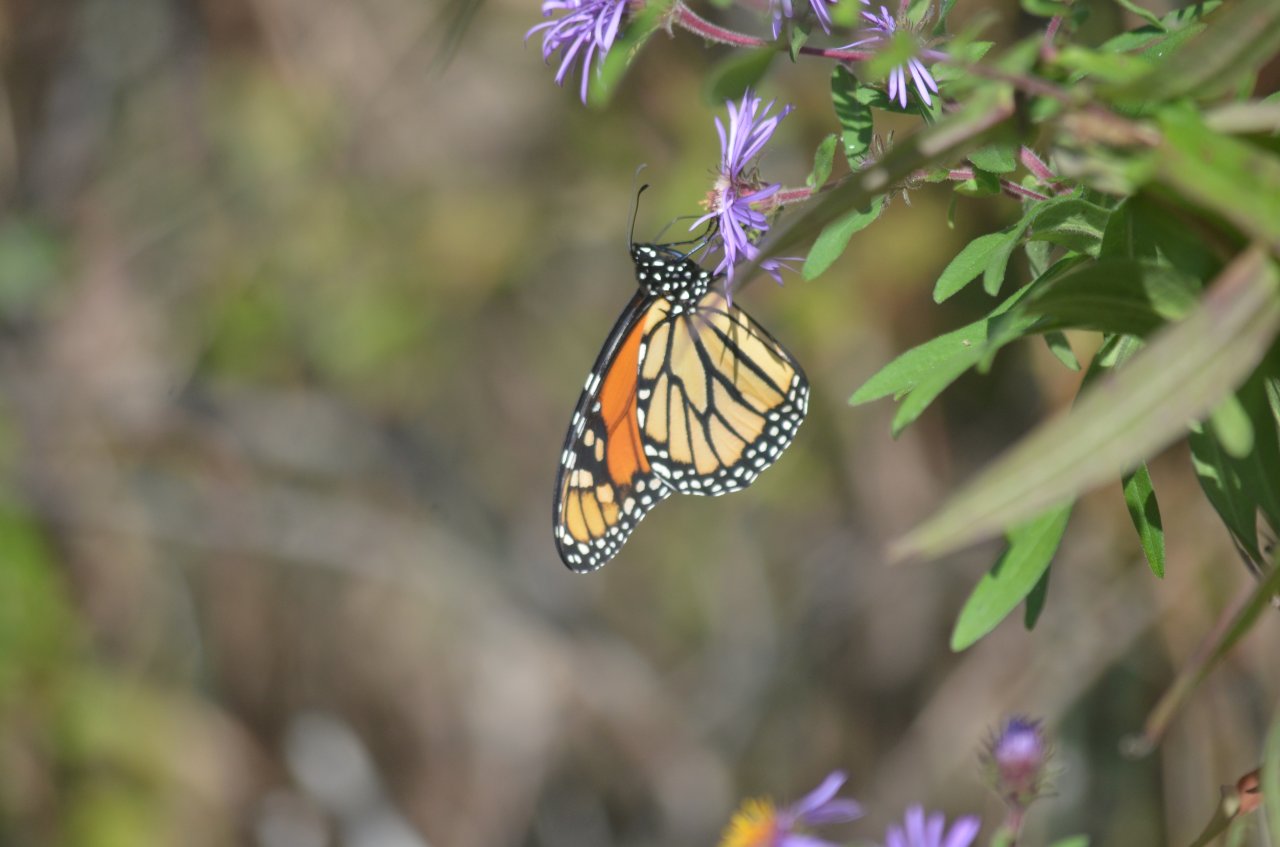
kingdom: Animalia
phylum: Arthropoda
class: Insecta
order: Lepidoptera
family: Nymphalidae
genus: Danaus
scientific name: Danaus plexippus
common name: Monarch
